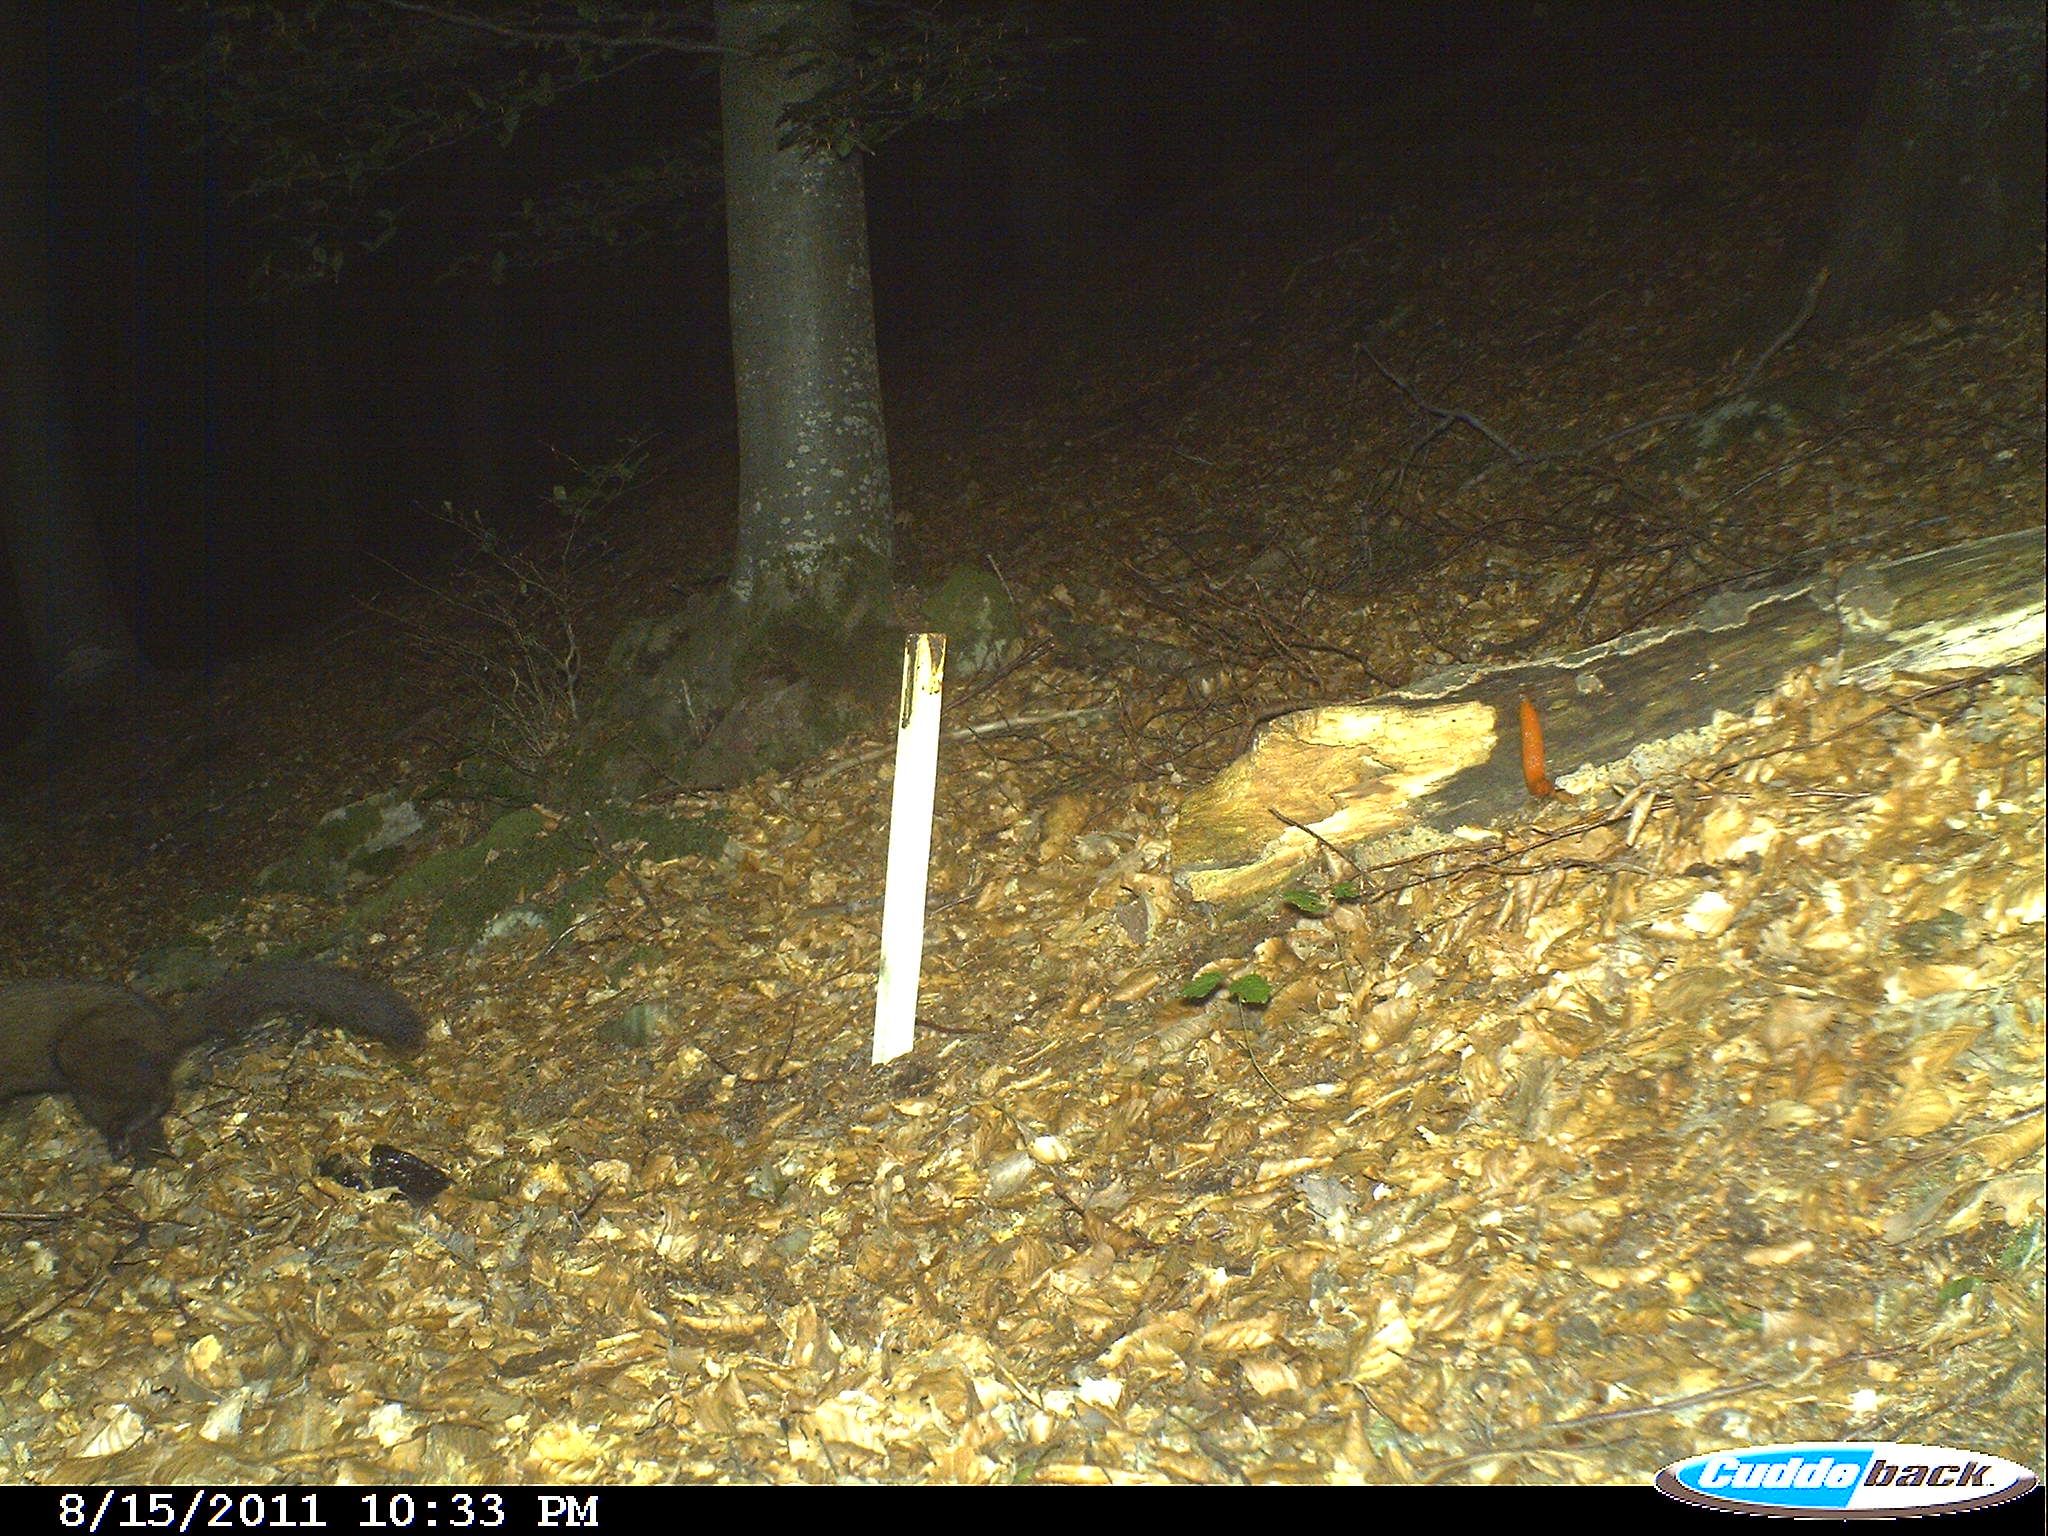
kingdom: Animalia
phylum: Chordata
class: Mammalia
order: Carnivora
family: Mustelidae
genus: Martes
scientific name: Martes
